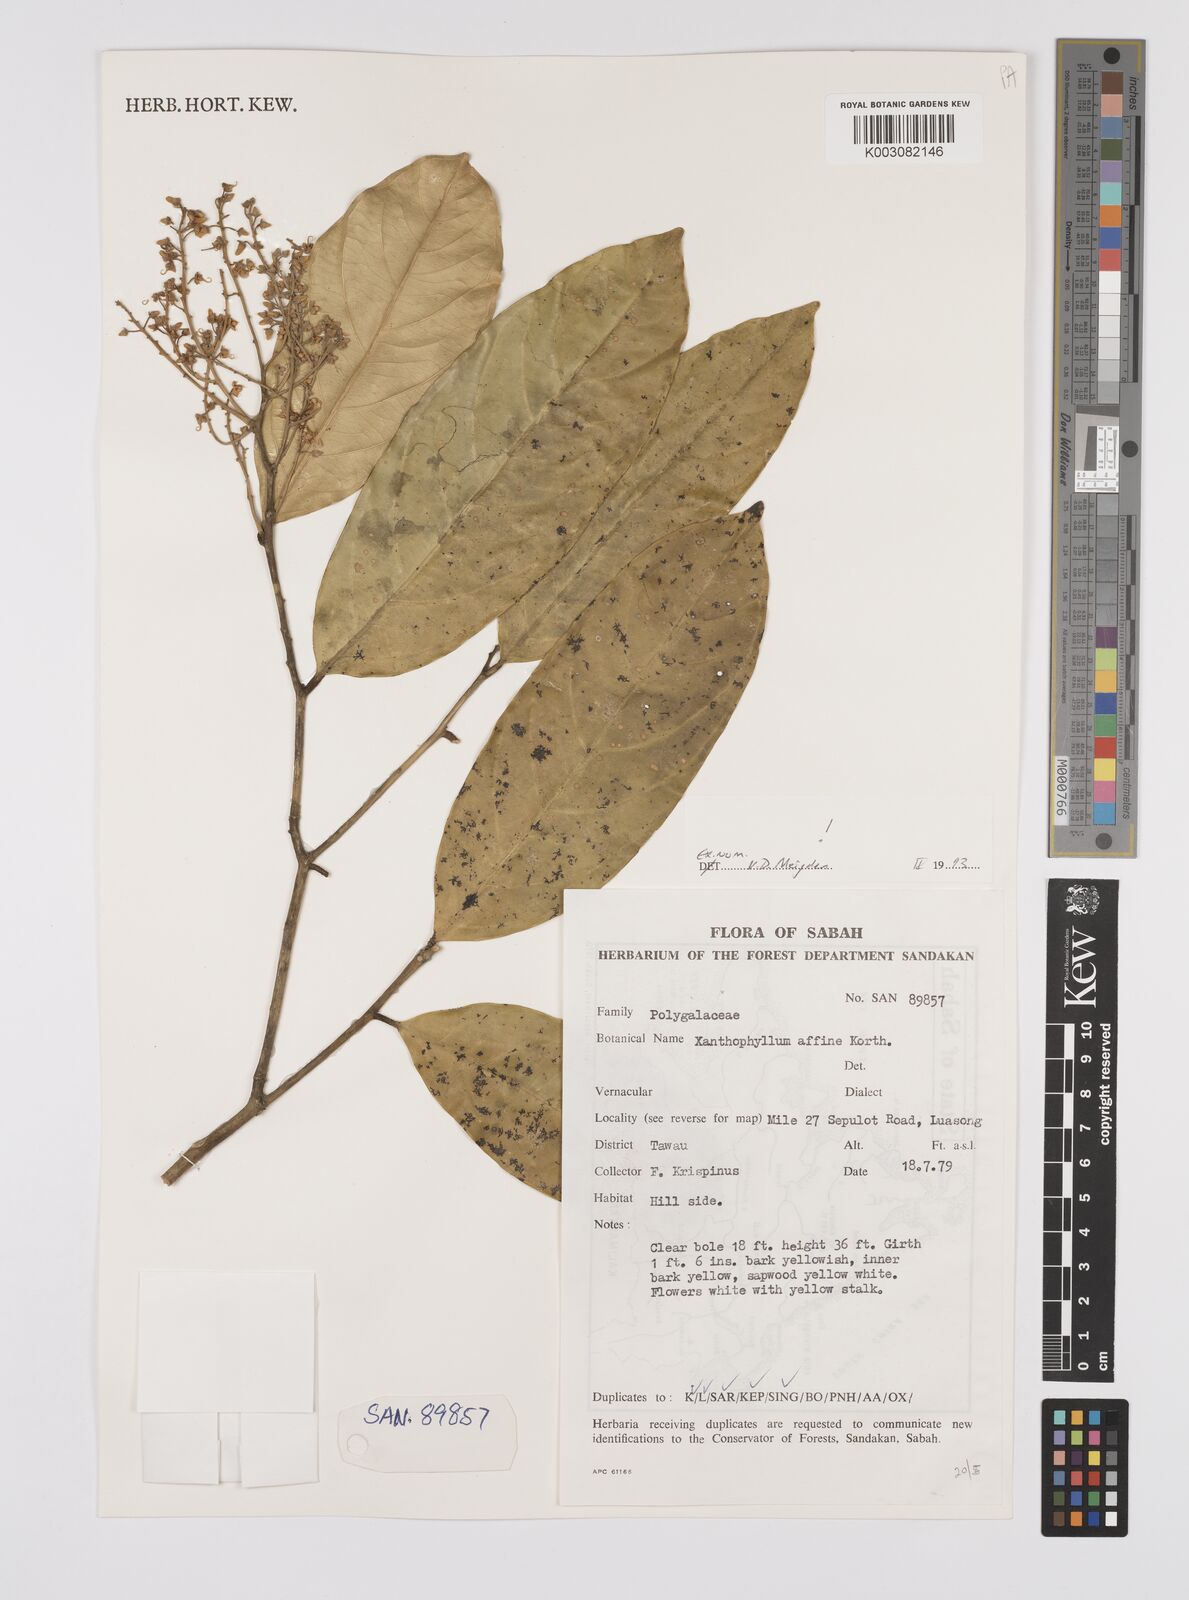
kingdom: Plantae
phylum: Tracheophyta
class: Magnoliopsida
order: Fabales
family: Polygalaceae
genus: Xanthophyllum
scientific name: Xanthophyllum flavescens
